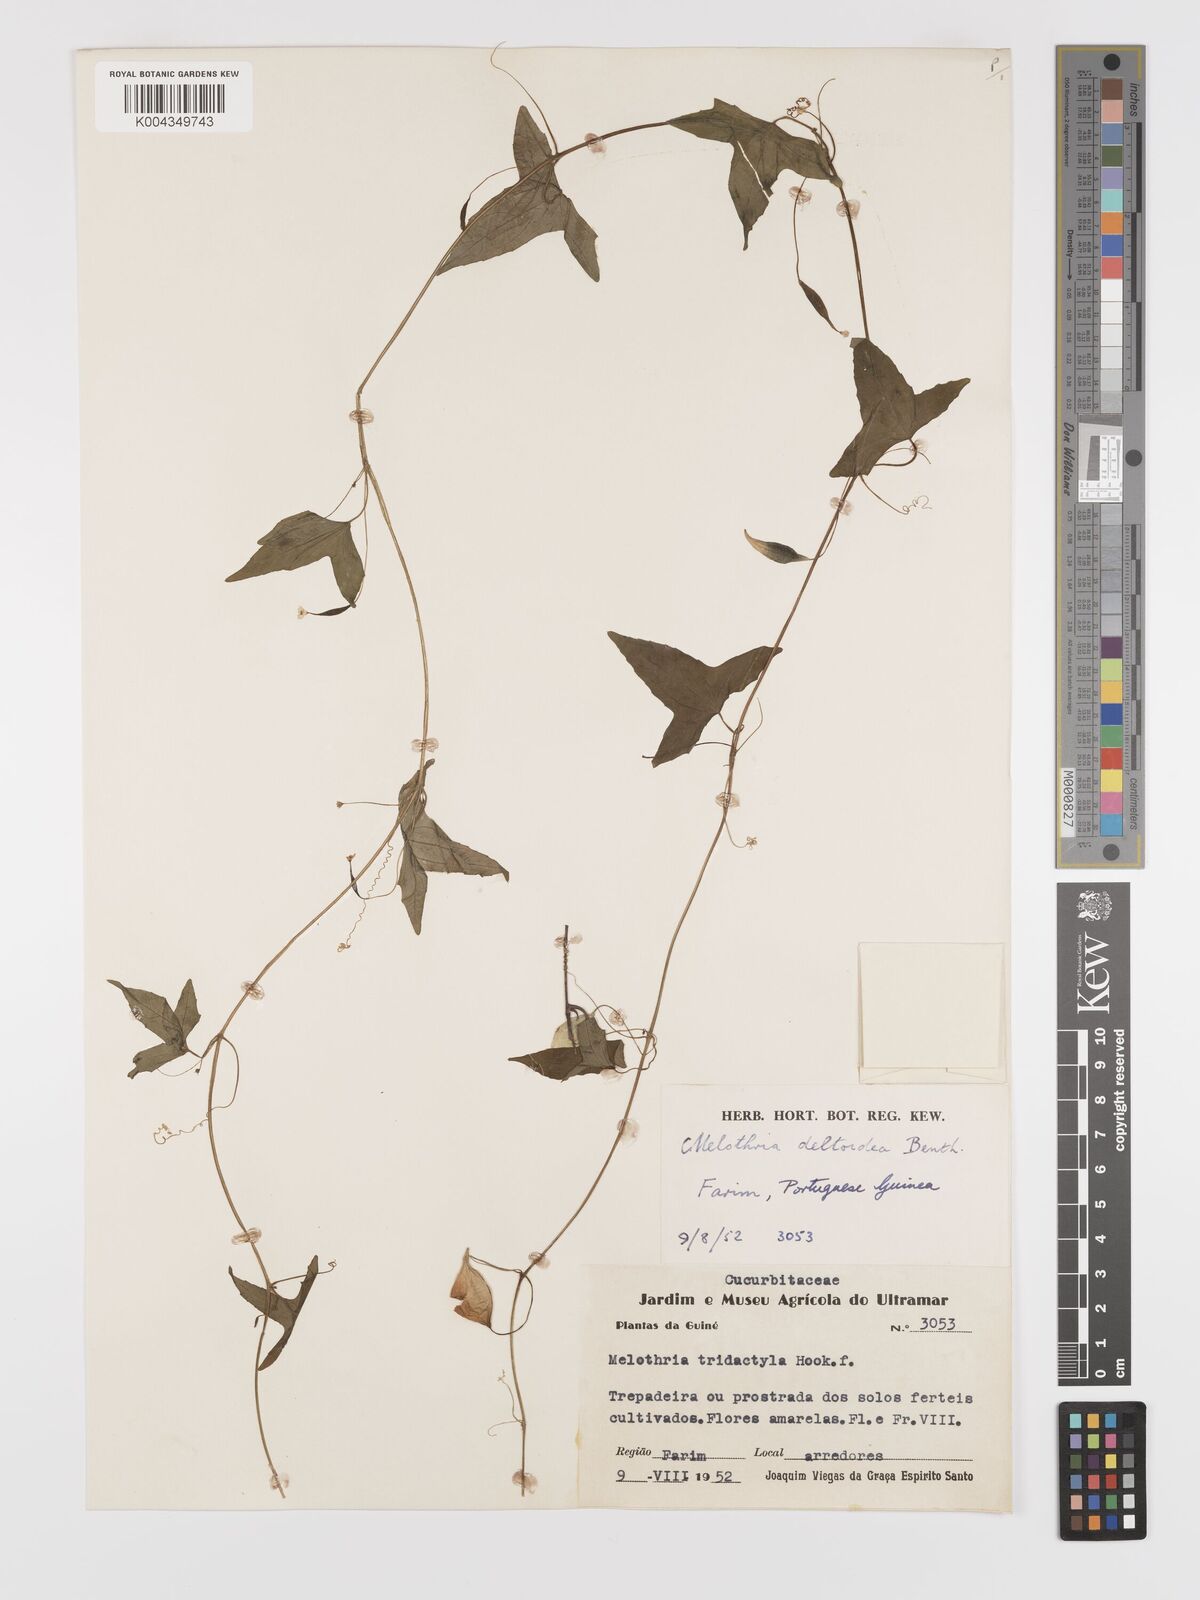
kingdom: Plantae
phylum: Tracheophyta
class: Magnoliopsida
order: Cucurbitales
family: Cucurbitaceae
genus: Zehneria
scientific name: Zehneria thwaitesii
